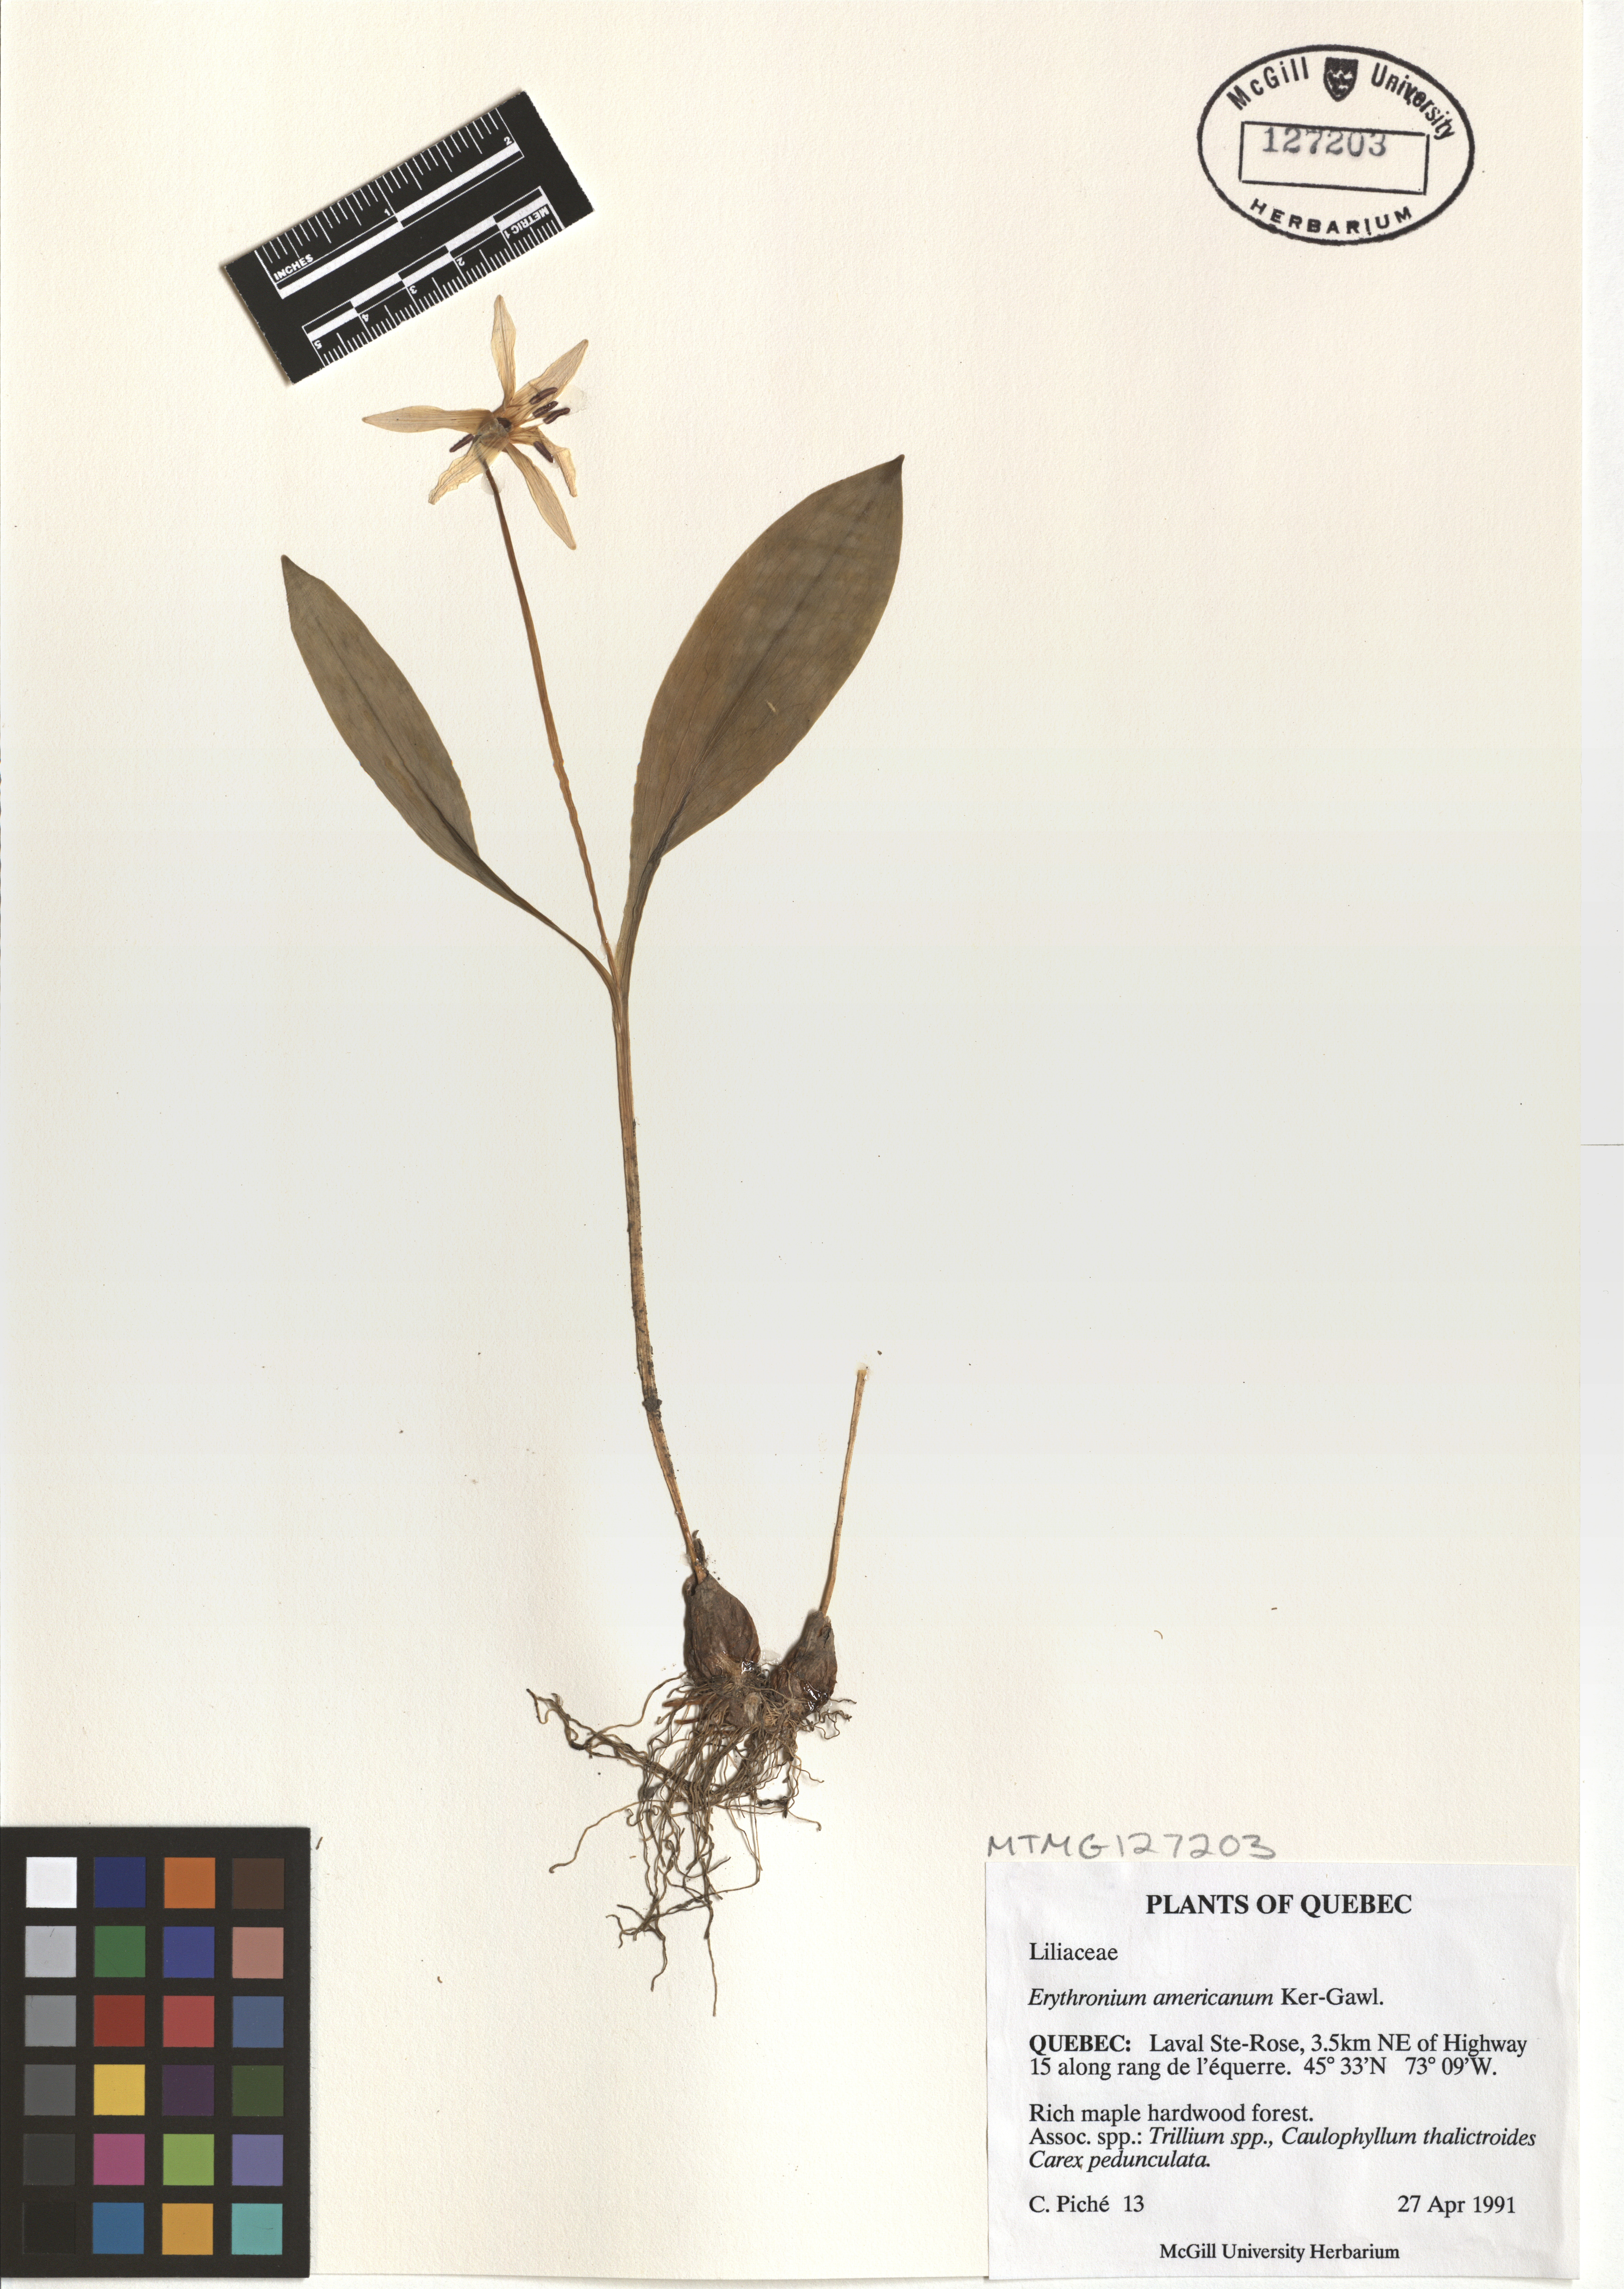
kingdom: Plantae
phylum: Tracheophyta
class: Liliopsida
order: Liliales
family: Liliaceae
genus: Erythronium
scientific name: Erythronium americanum
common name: Yellow adder's-tongue
